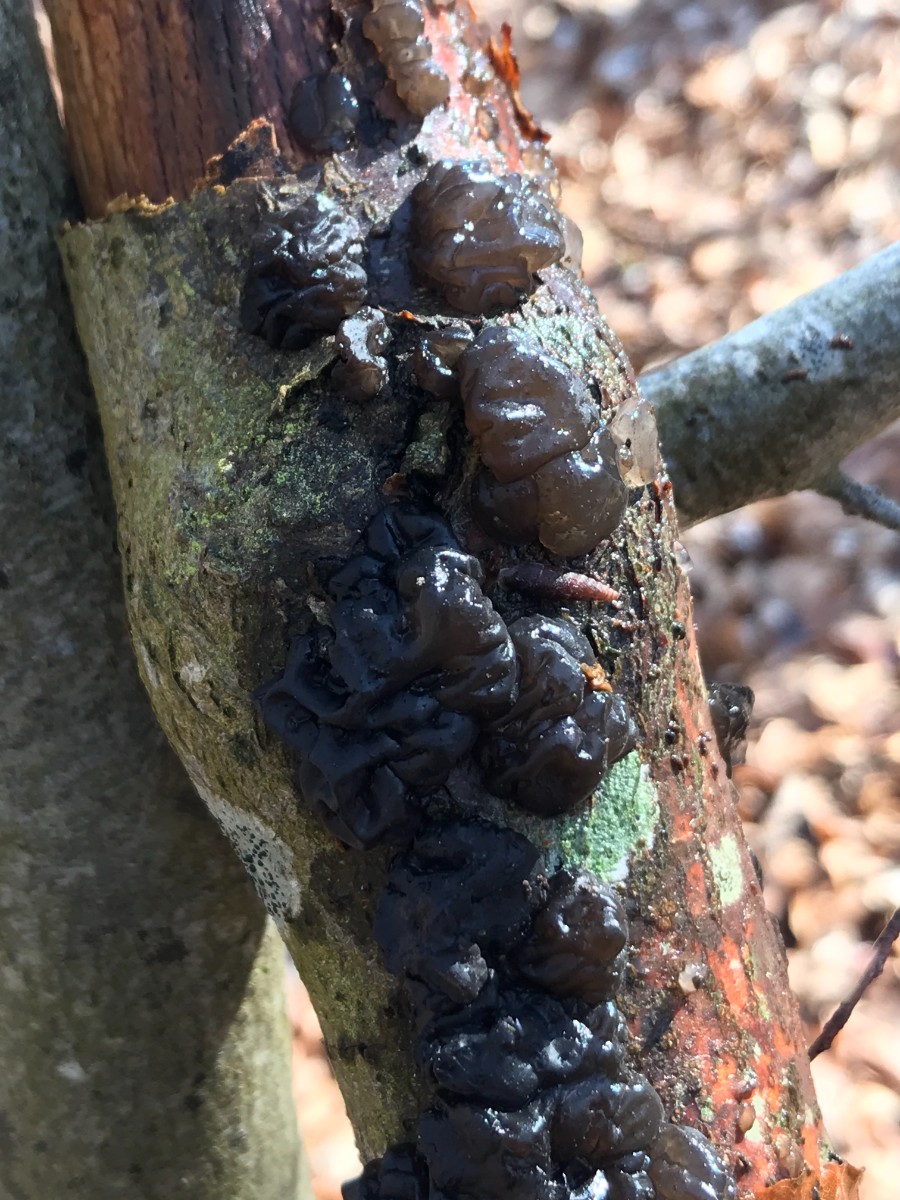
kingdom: Fungi
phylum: Basidiomycota
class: Agaricomycetes
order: Auriculariales
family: Auriculariaceae
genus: Exidia
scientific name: Exidia nigricans
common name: almindelig bævretop
